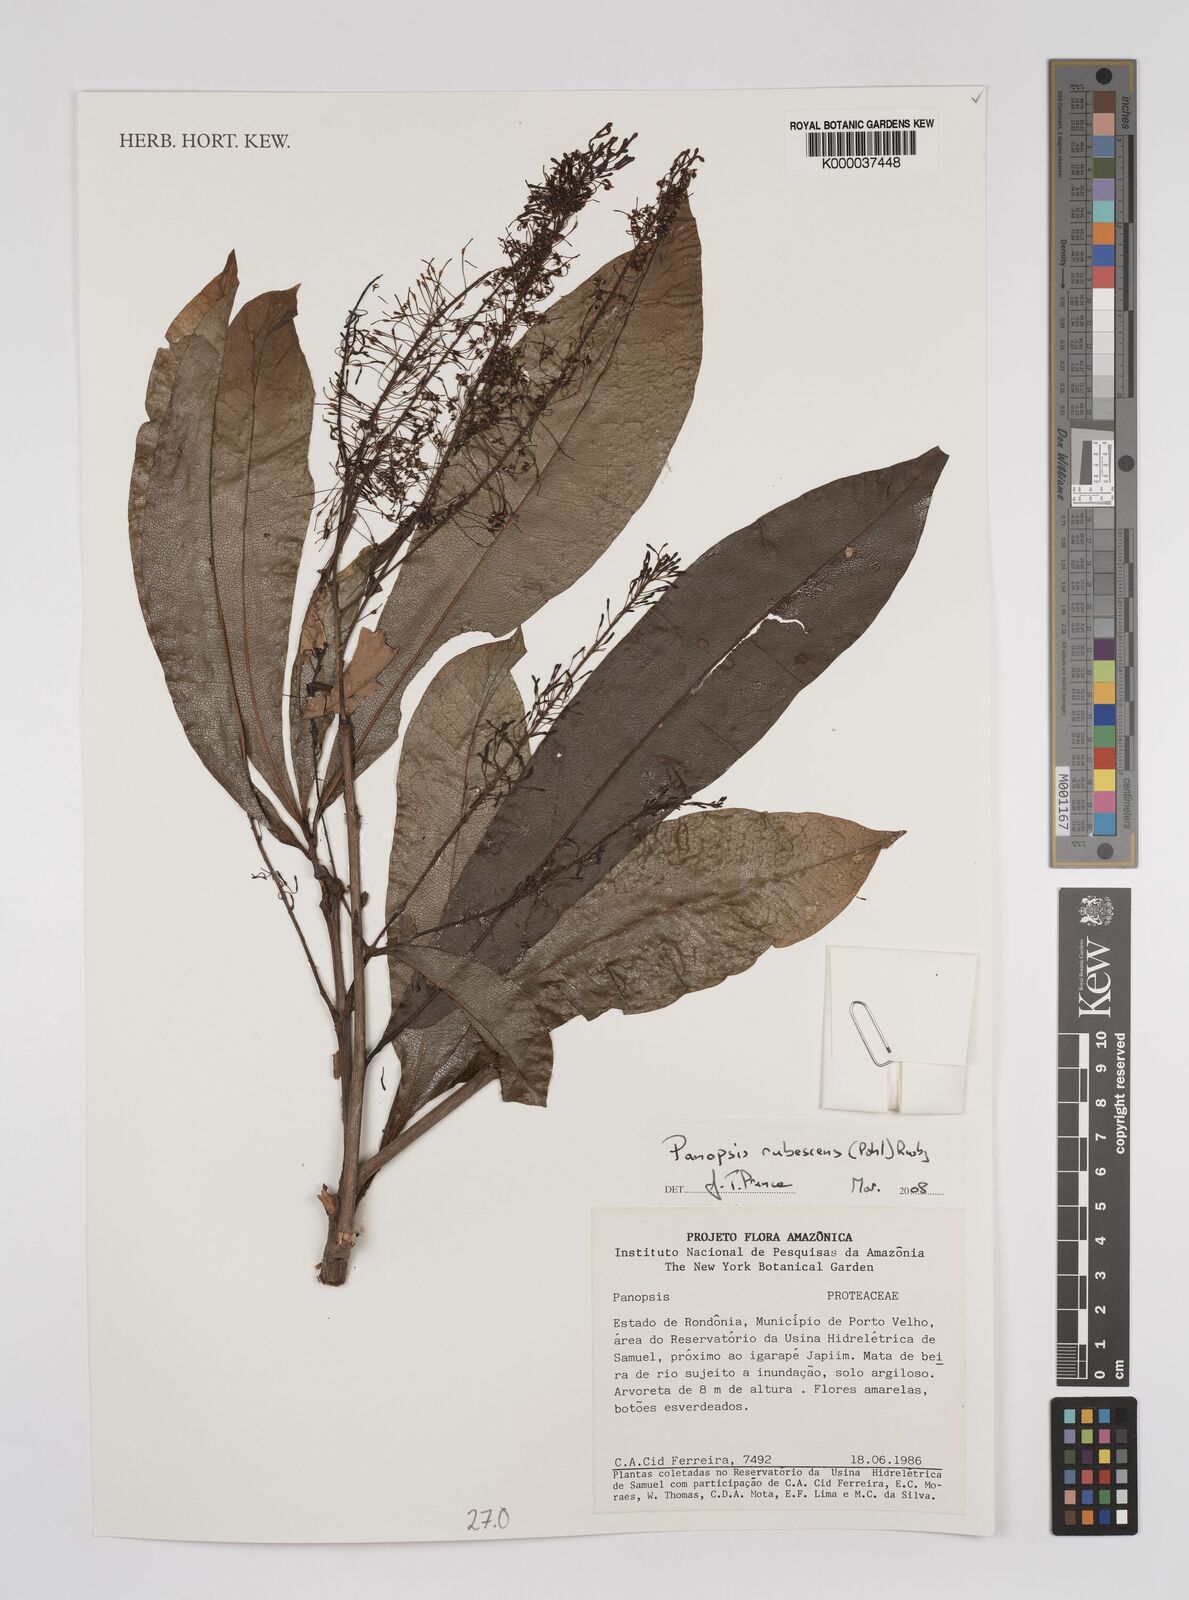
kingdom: Plantae
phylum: Tracheophyta
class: Magnoliopsida
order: Proteales
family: Proteaceae
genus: Panopsis
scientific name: Panopsis
